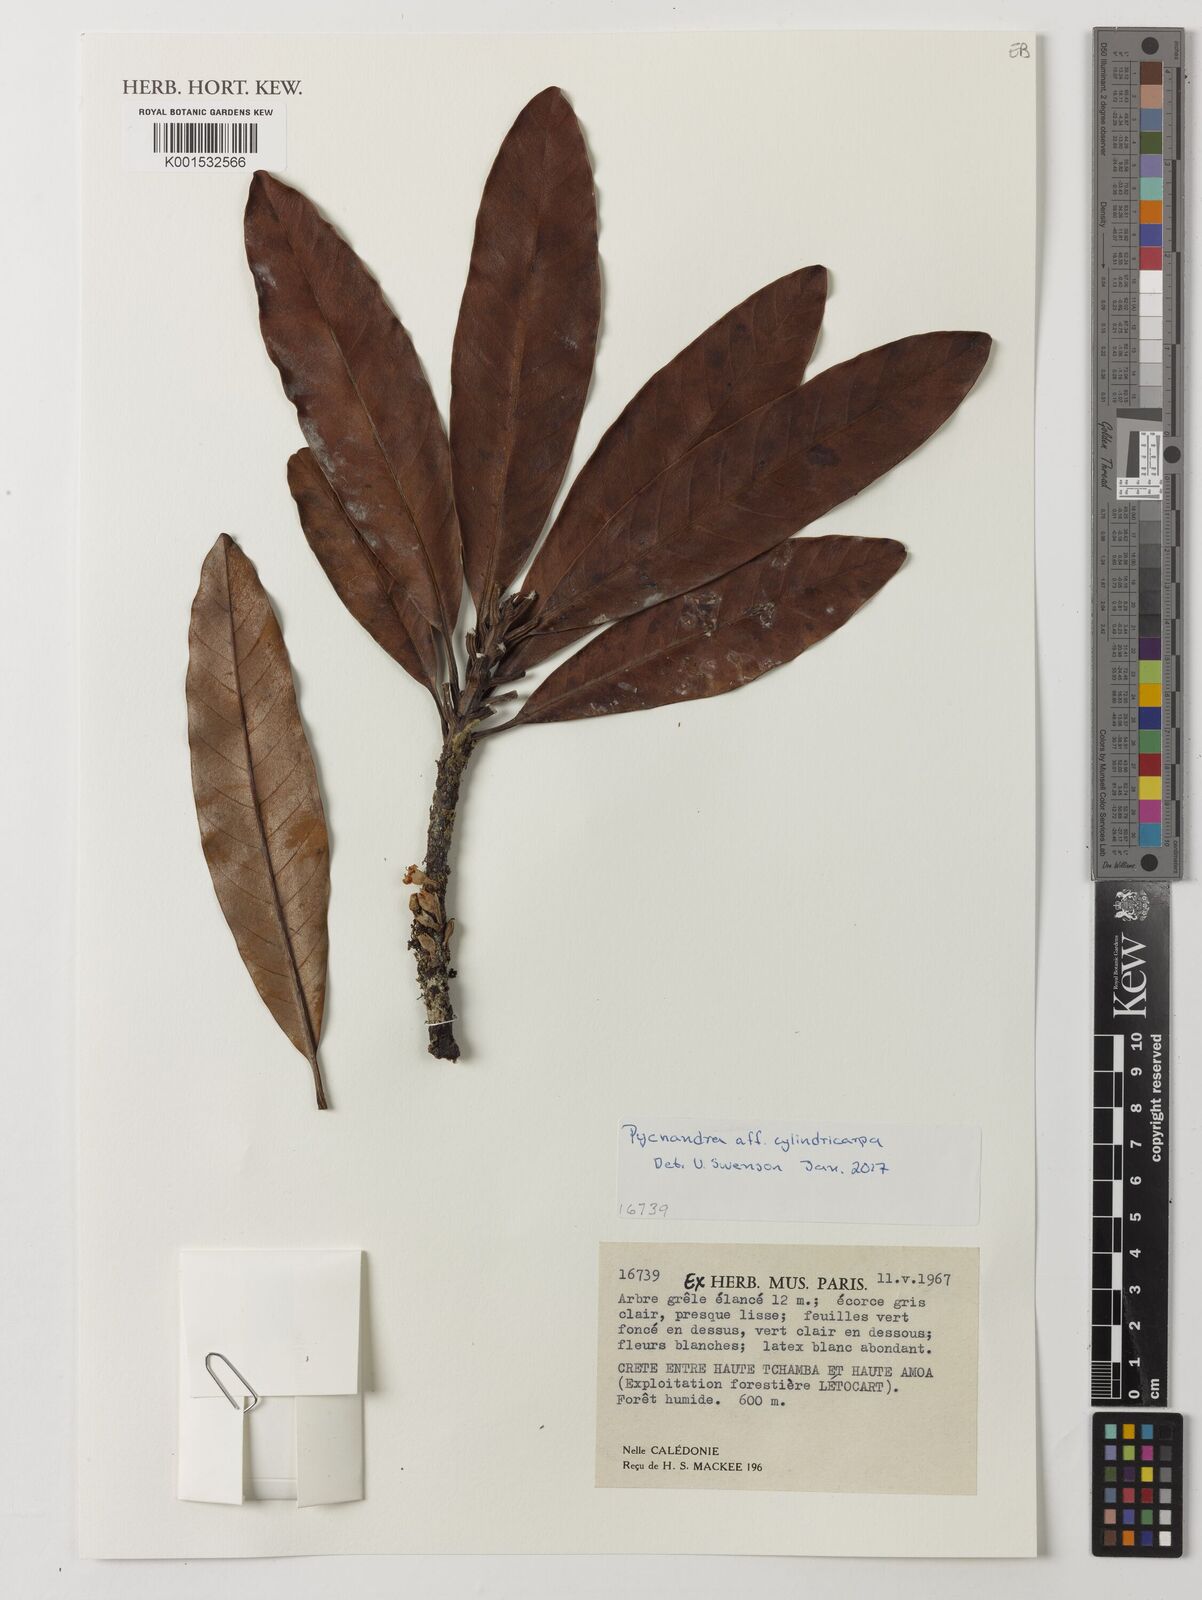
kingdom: Plantae
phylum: Tracheophyta
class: Magnoliopsida
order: Ericales
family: Sapotaceae
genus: Pycnandra
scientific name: Pycnandra cylindricarpa
